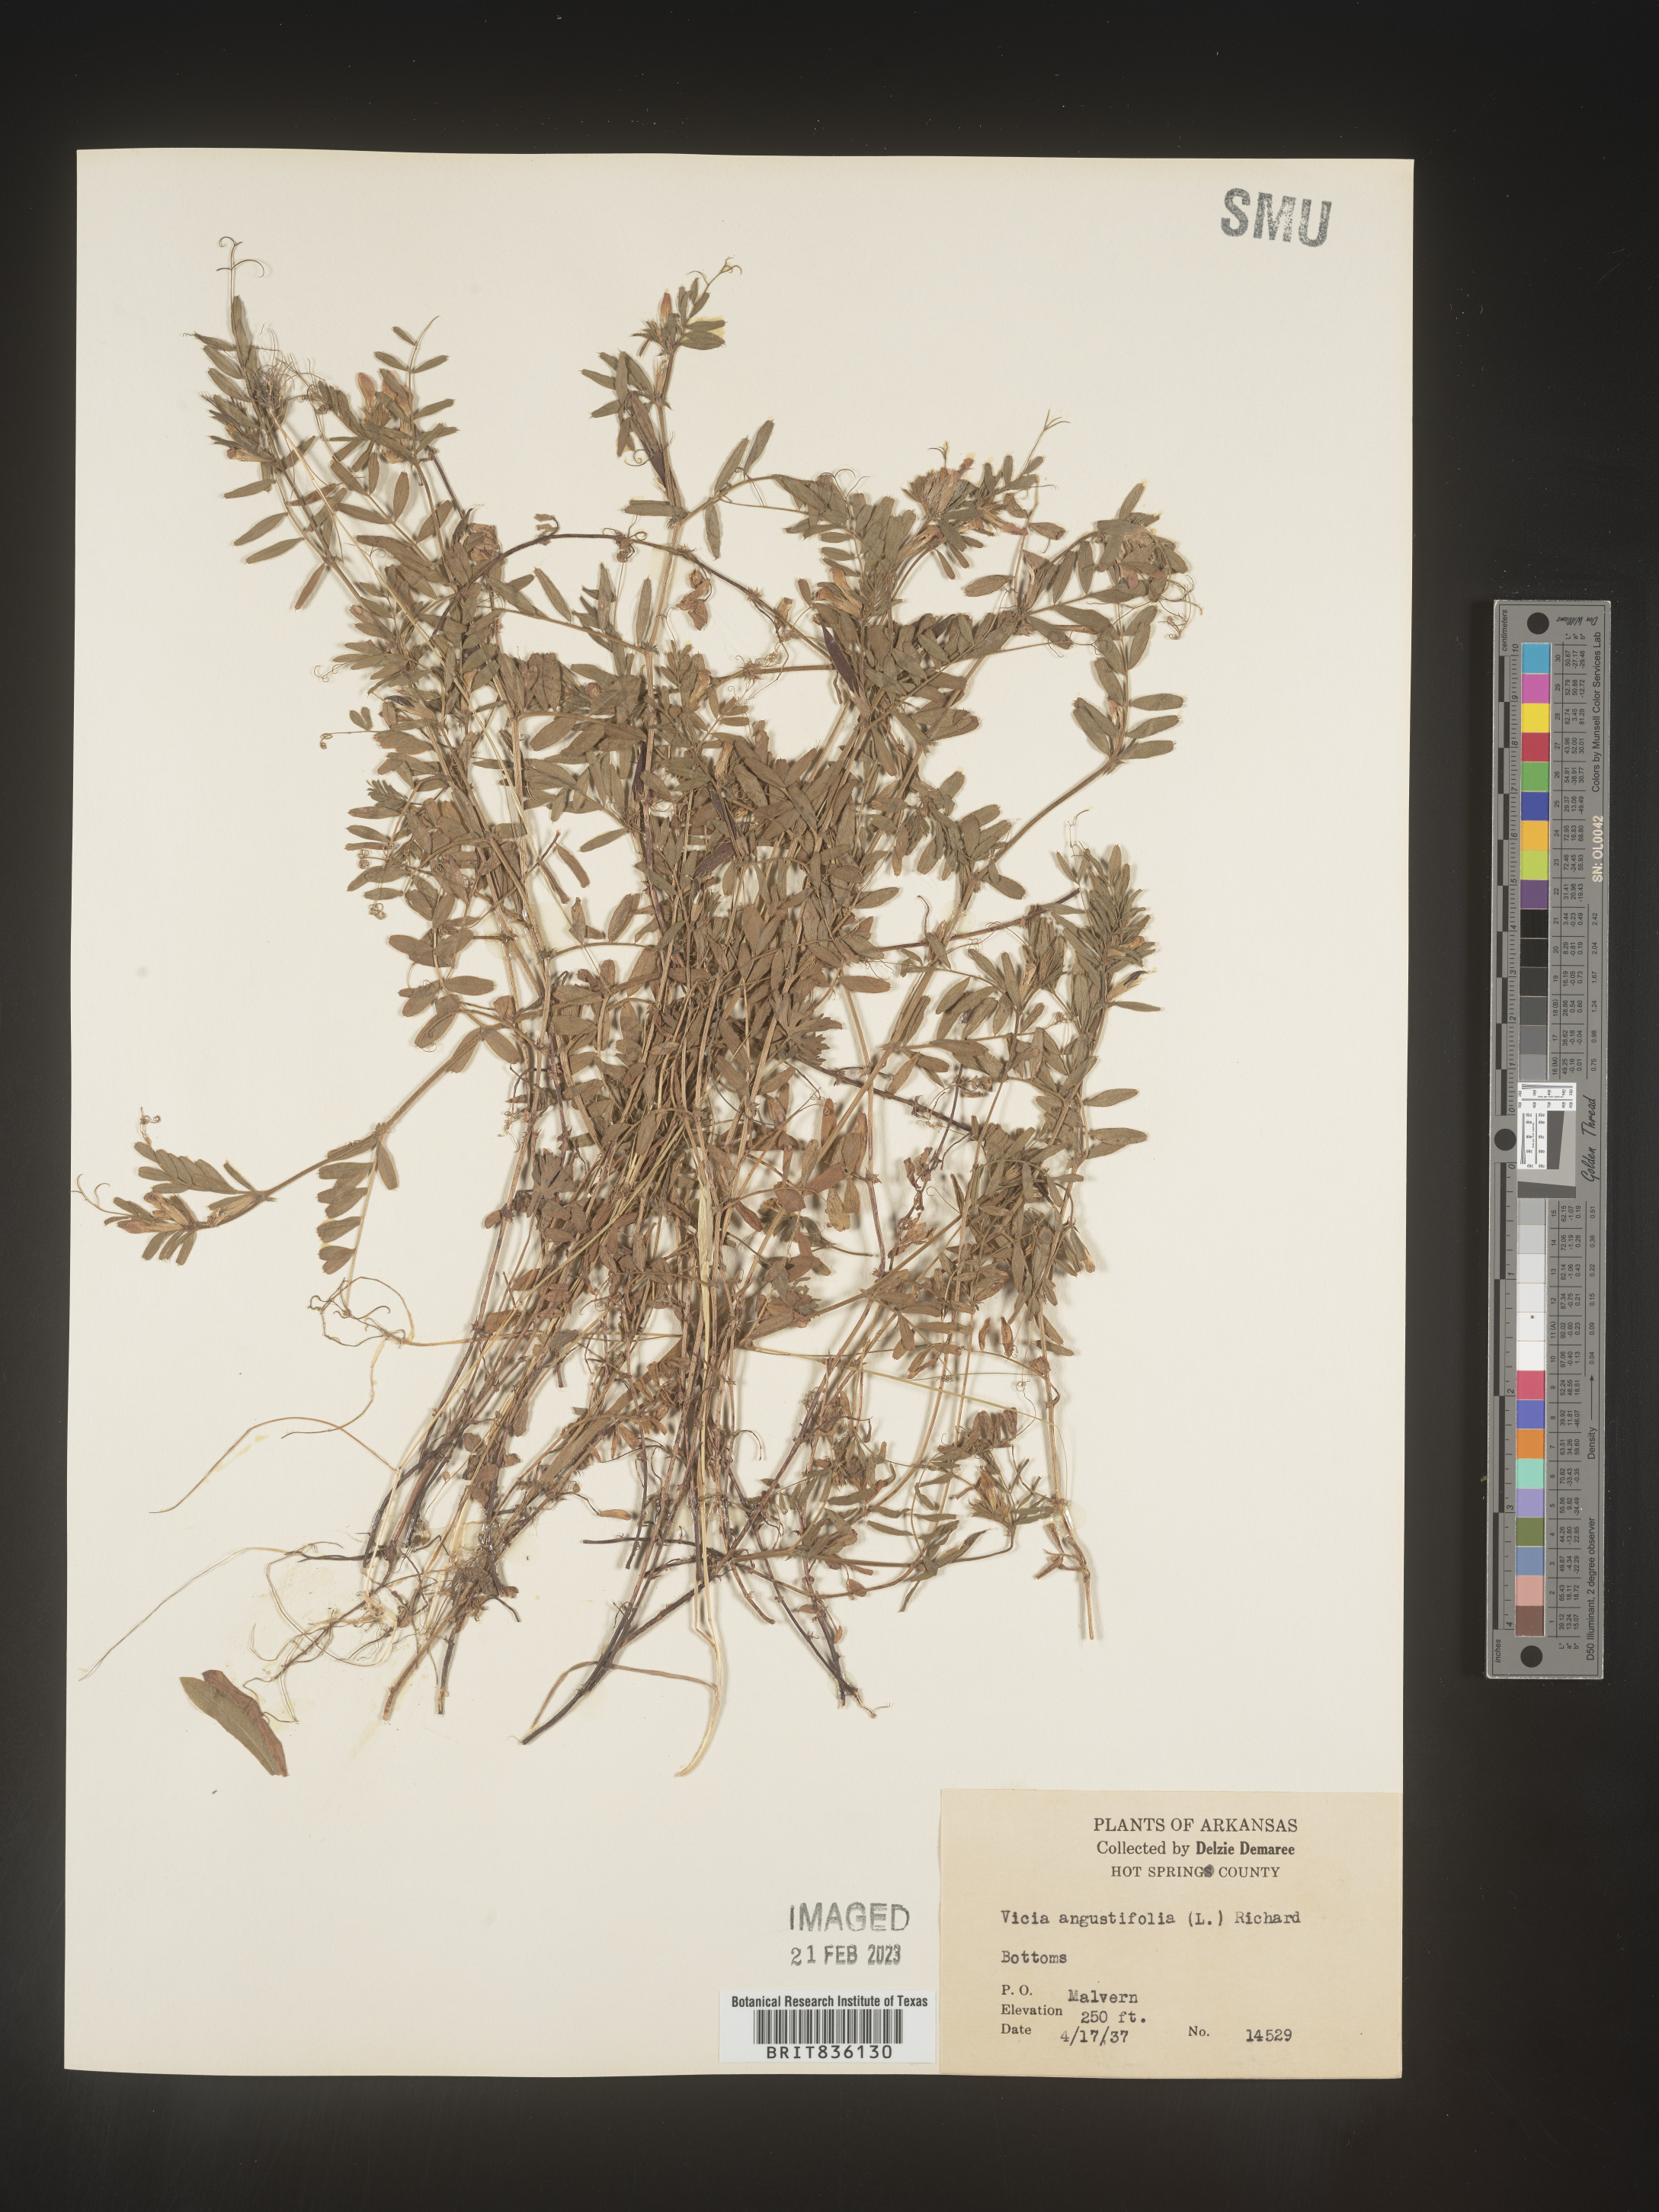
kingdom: Plantae
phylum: Tracheophyta
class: Magnoliopsida
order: Fabales
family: Fabaceae
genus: Vicia
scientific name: Vicia sativa
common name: Garden vetch
